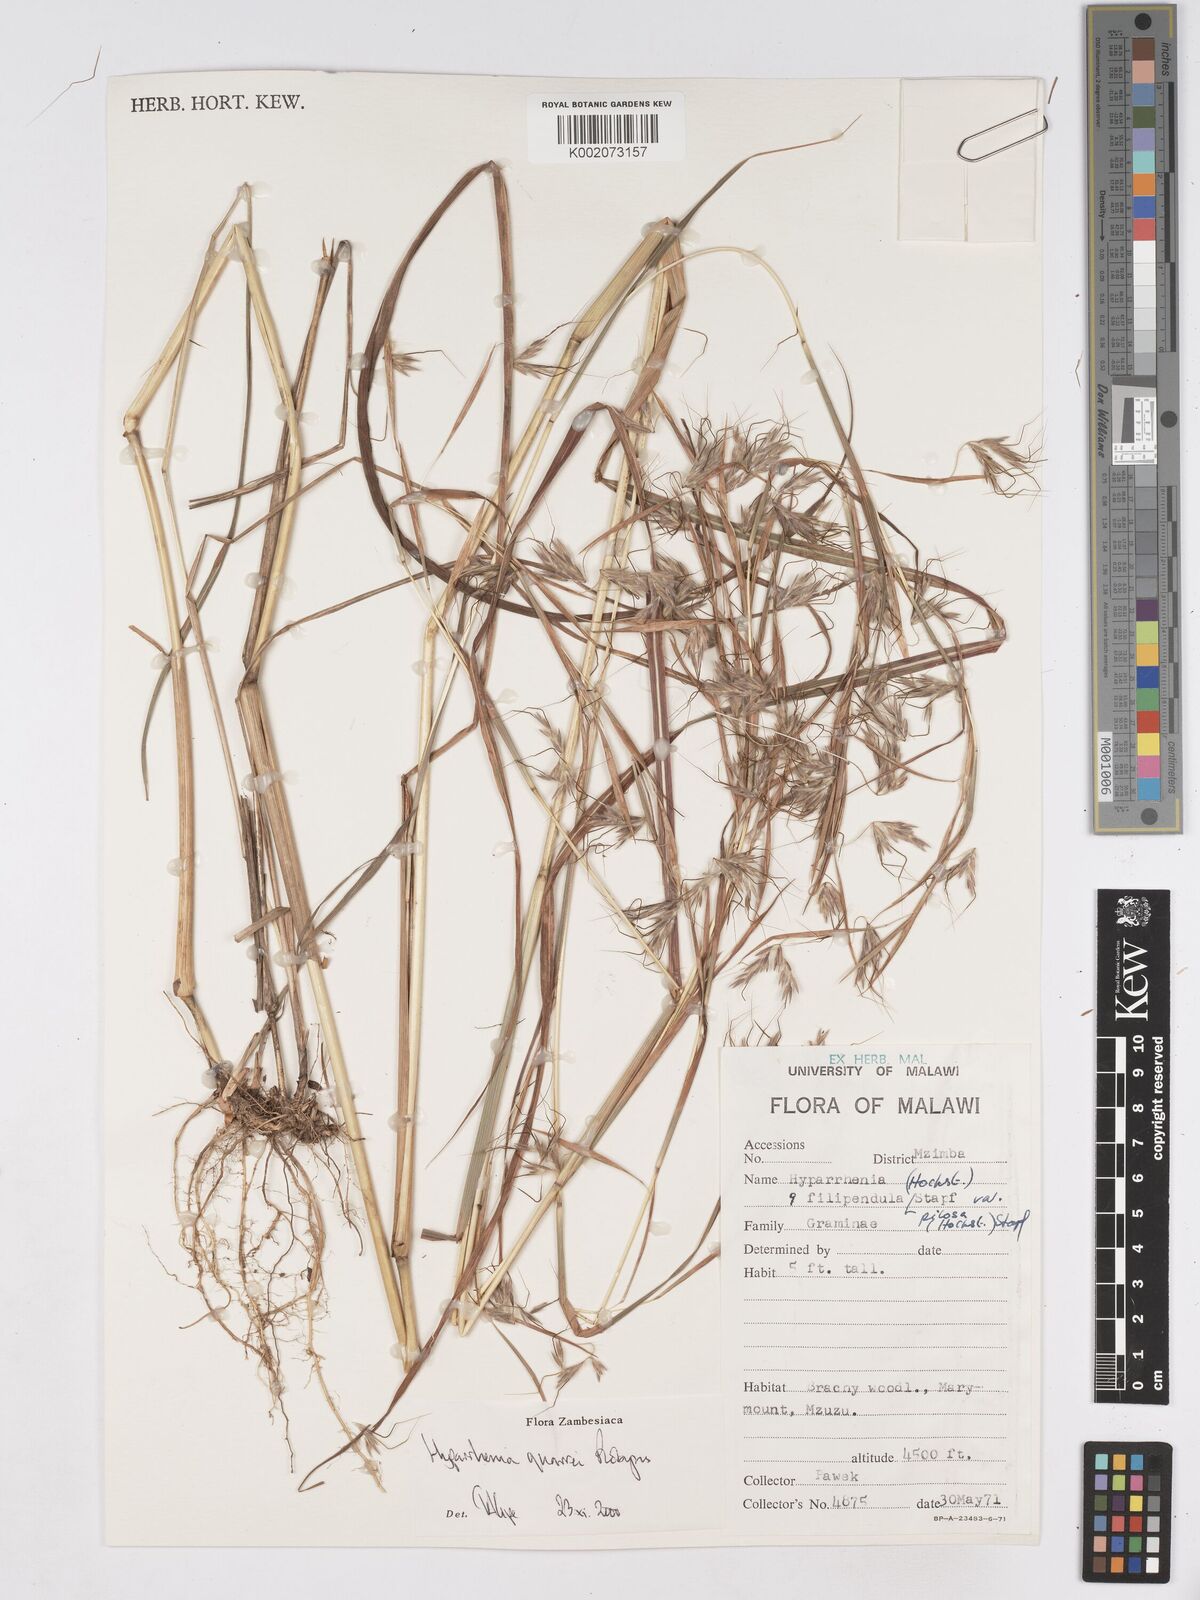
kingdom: Plantae
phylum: Tracheophyta
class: Liliopsida
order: Poales
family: Poaceae
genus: Hyparrhenia
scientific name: Hyparrhenia quarrei
